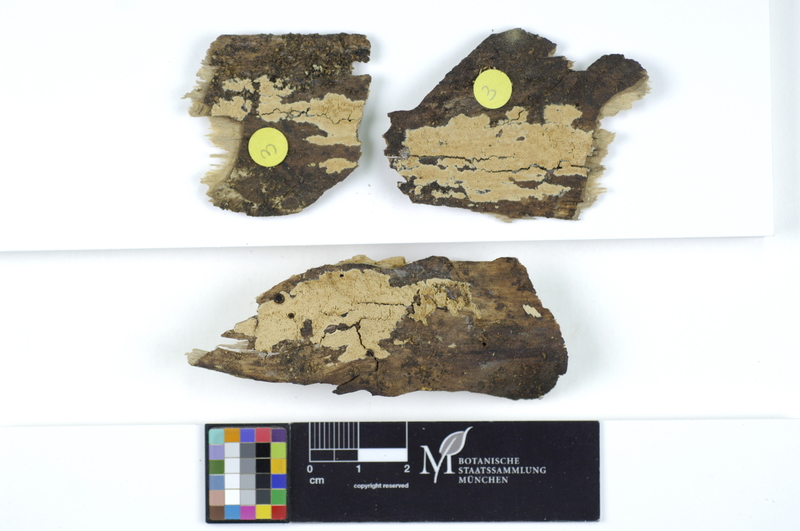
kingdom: Plantae
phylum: Tracheophyta
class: Magnoliopsida
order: Malpighiales
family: Salicaceae
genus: Populus
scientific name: Populus
